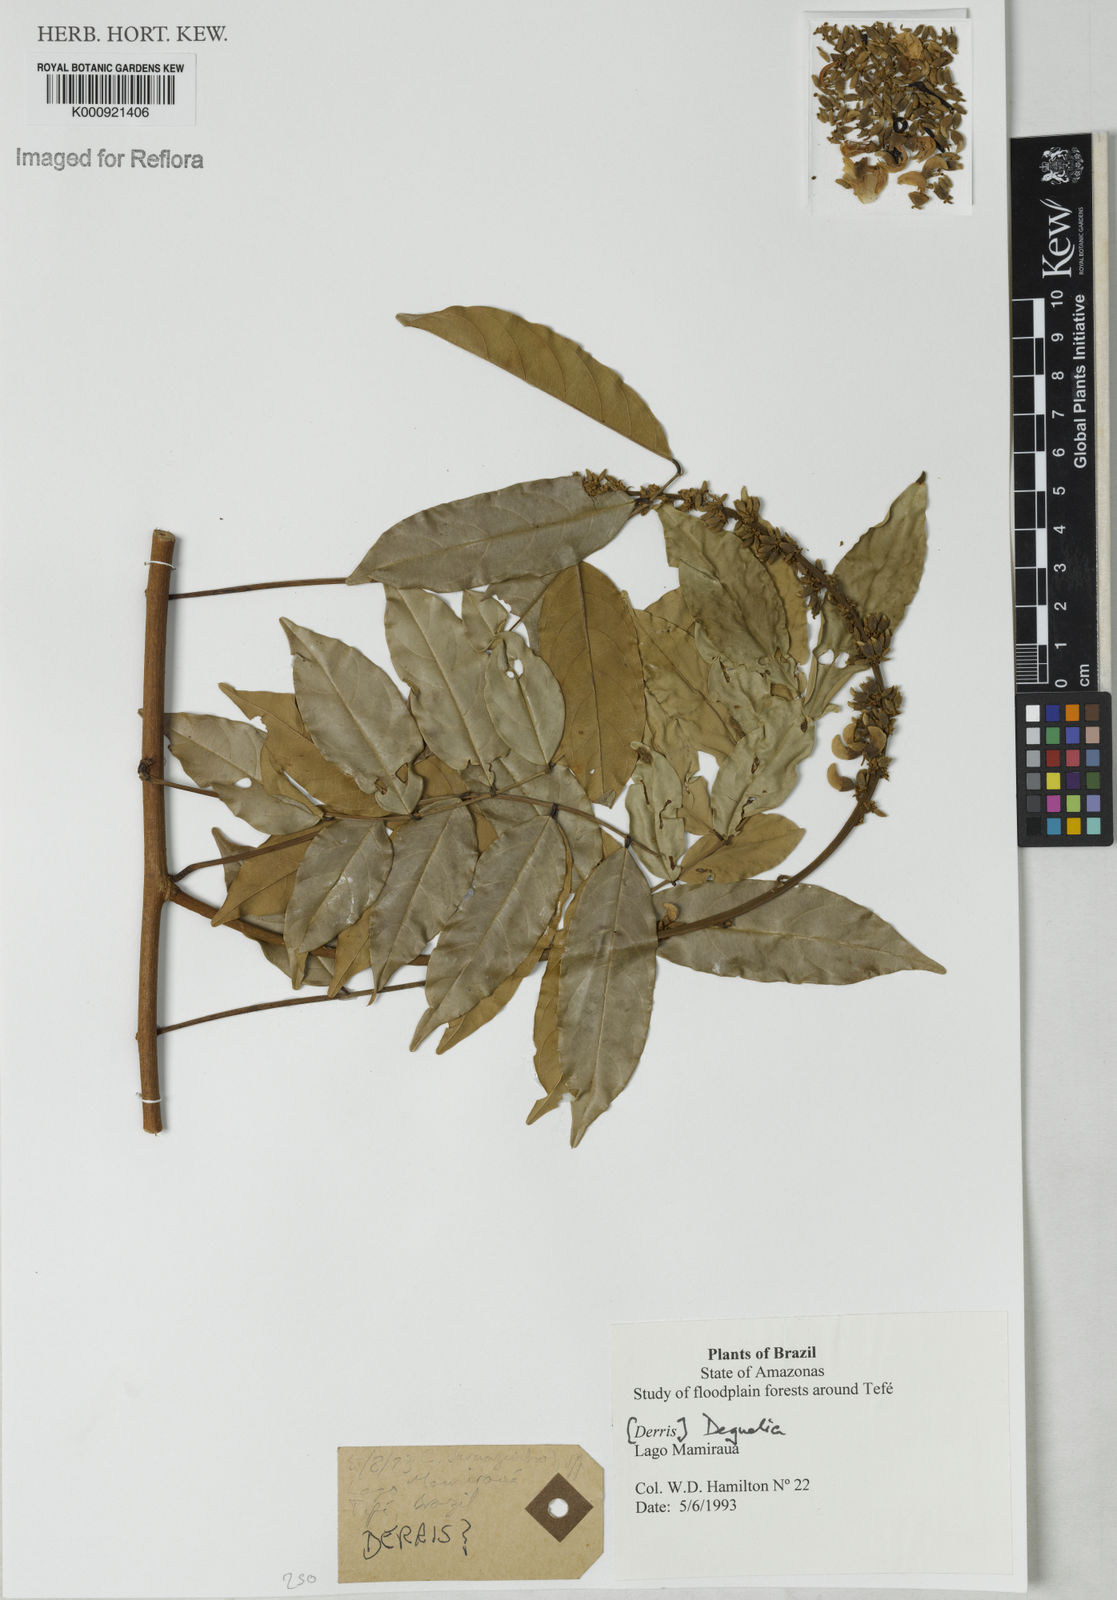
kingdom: Plantae
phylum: Tracheophyta
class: Magnoliopsida
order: Fabales
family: Fabaceae
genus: Deguelia
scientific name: Deguelia
